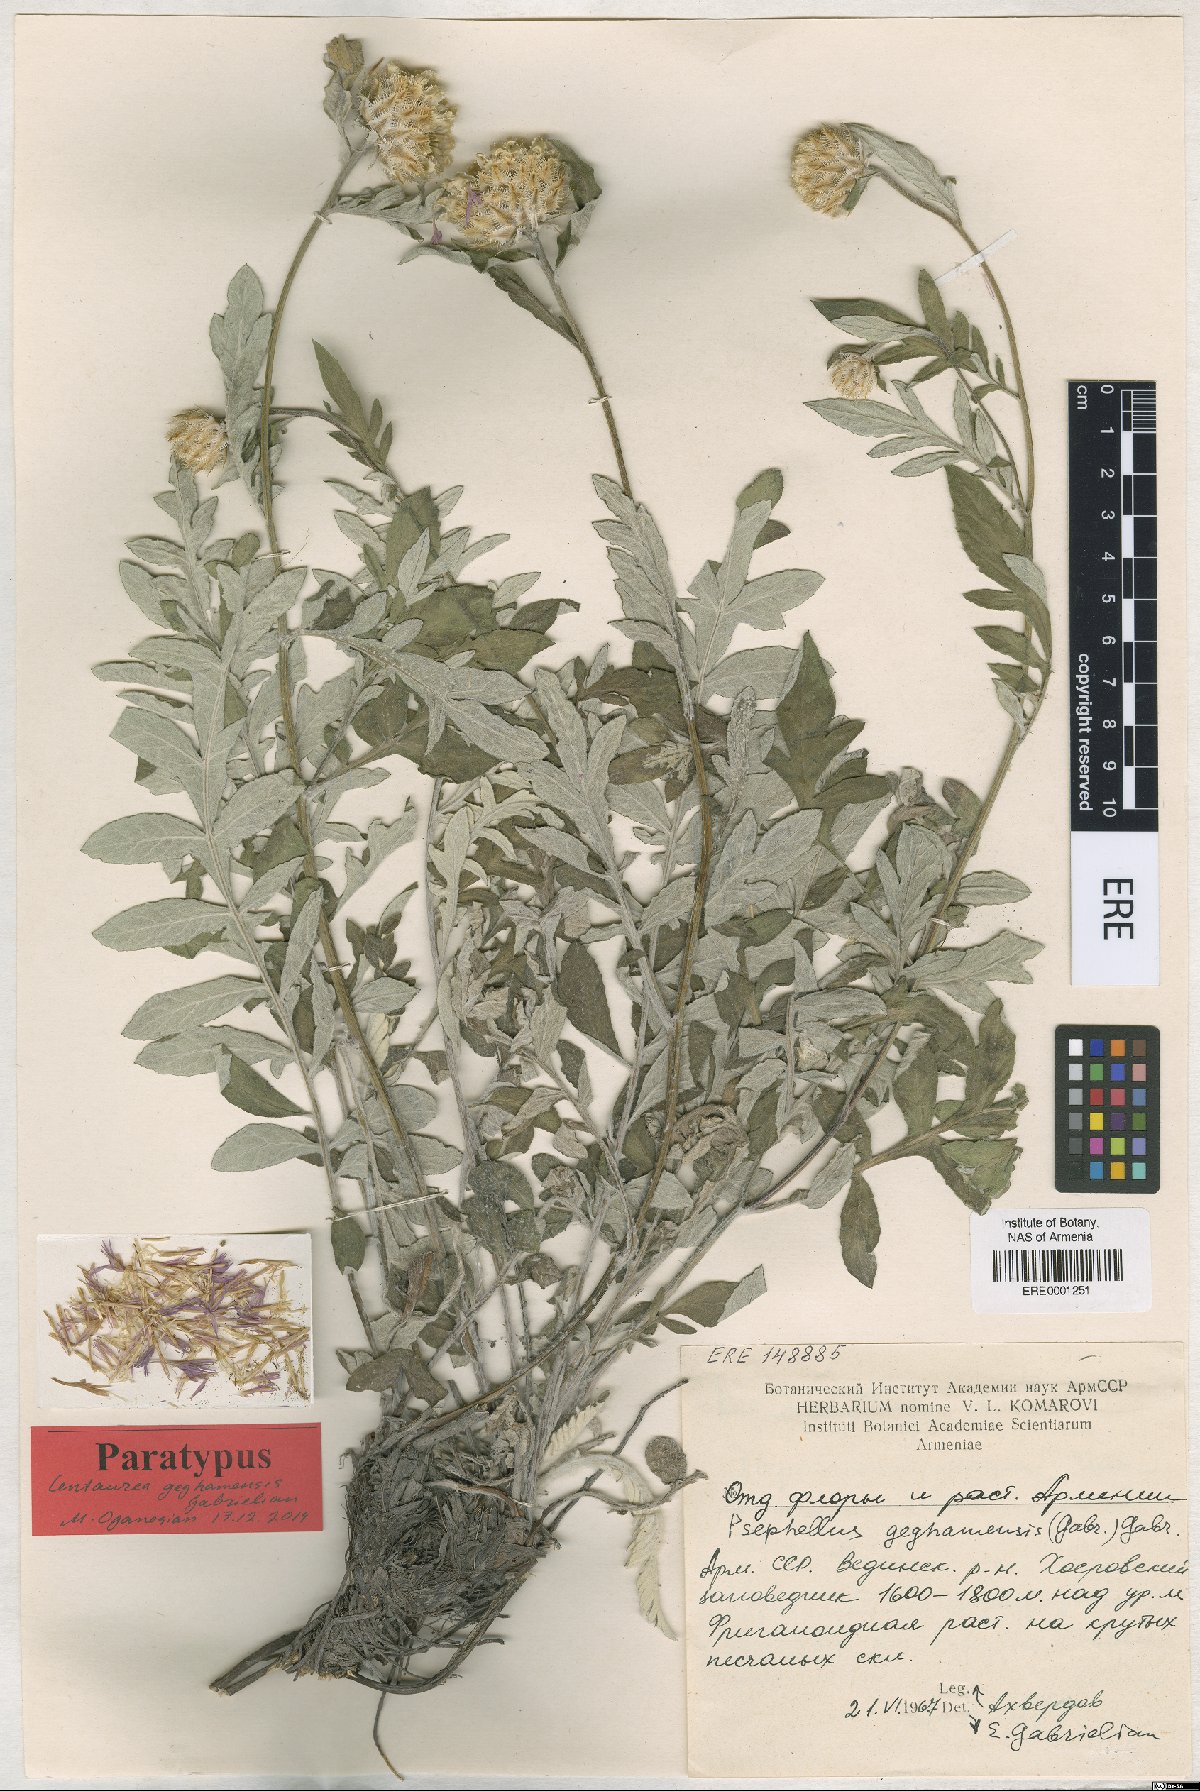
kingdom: Plantae
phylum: Tracheophyta
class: Magnoliopsida
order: Asterales
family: Asteraceae
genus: Psephellus
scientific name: Psephellus geghamensis
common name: Geghamian cornflower
